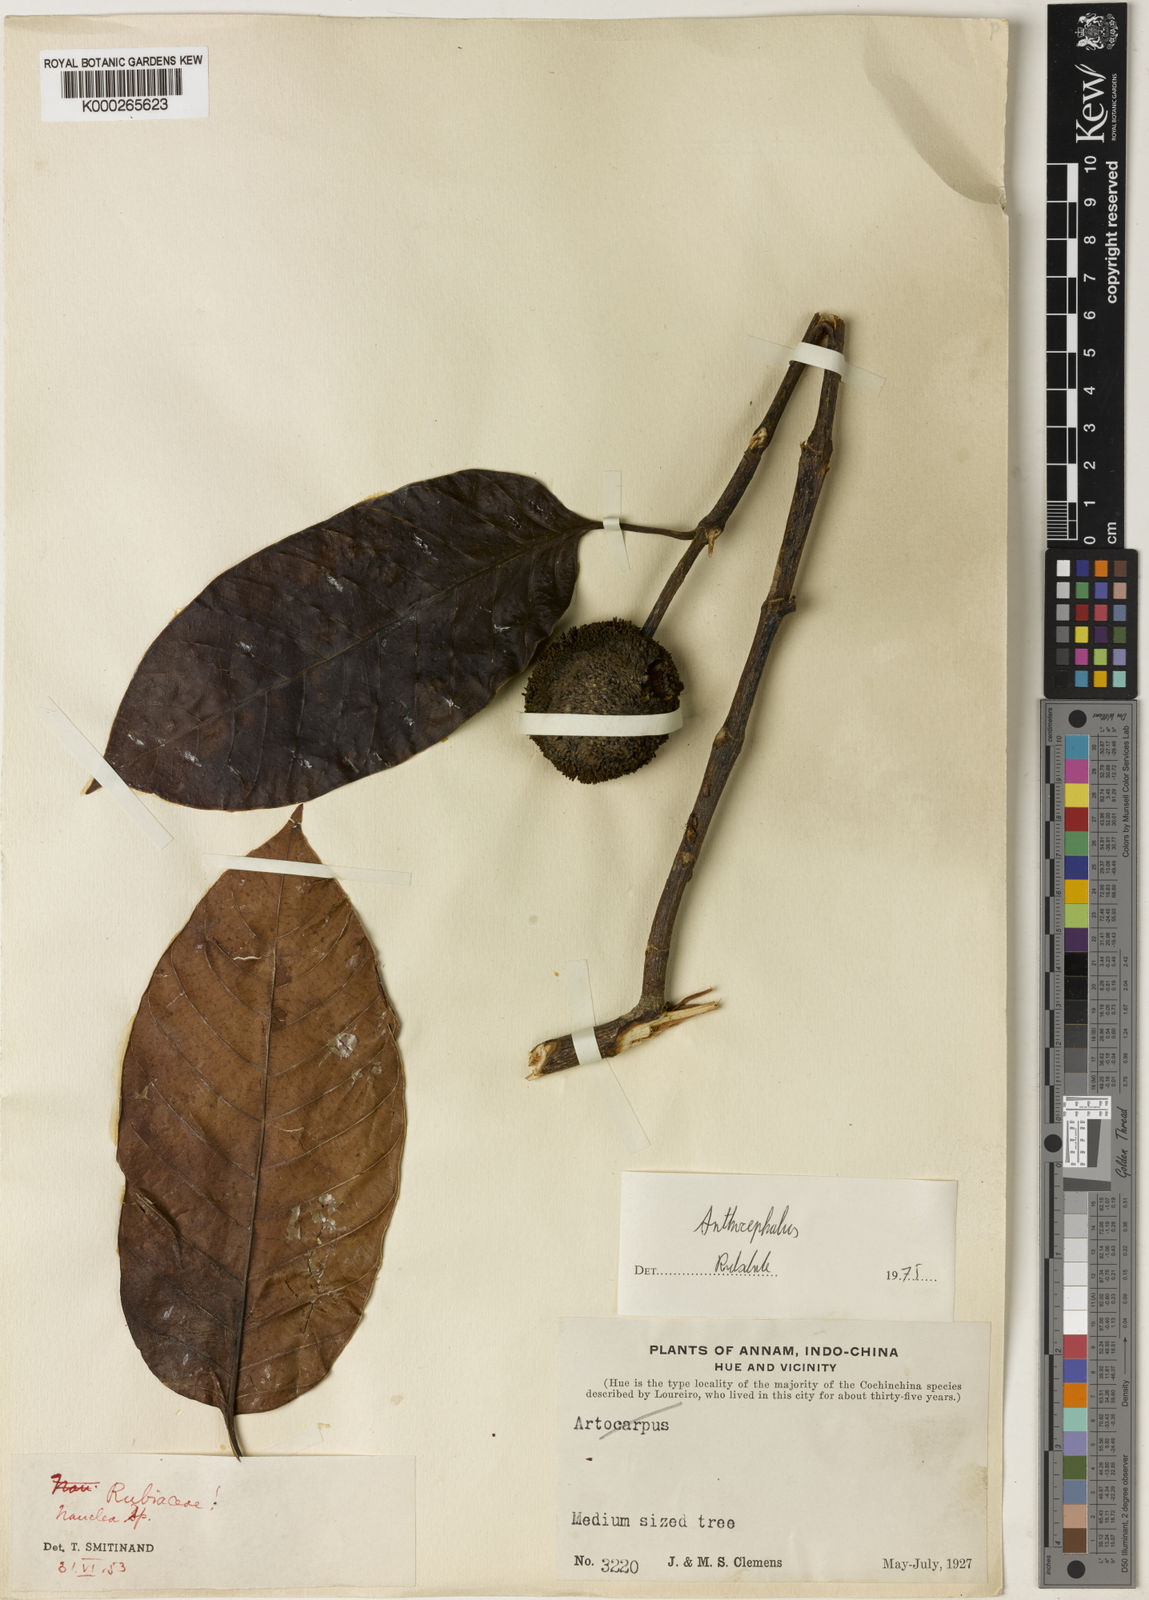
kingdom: Plantae
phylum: Tracheophyta
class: Magnoliopsida
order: Gentianales
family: Rubiaceae
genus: Neolamarckia
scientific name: Neolamarckia cadamba
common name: Leichhardt-pine
